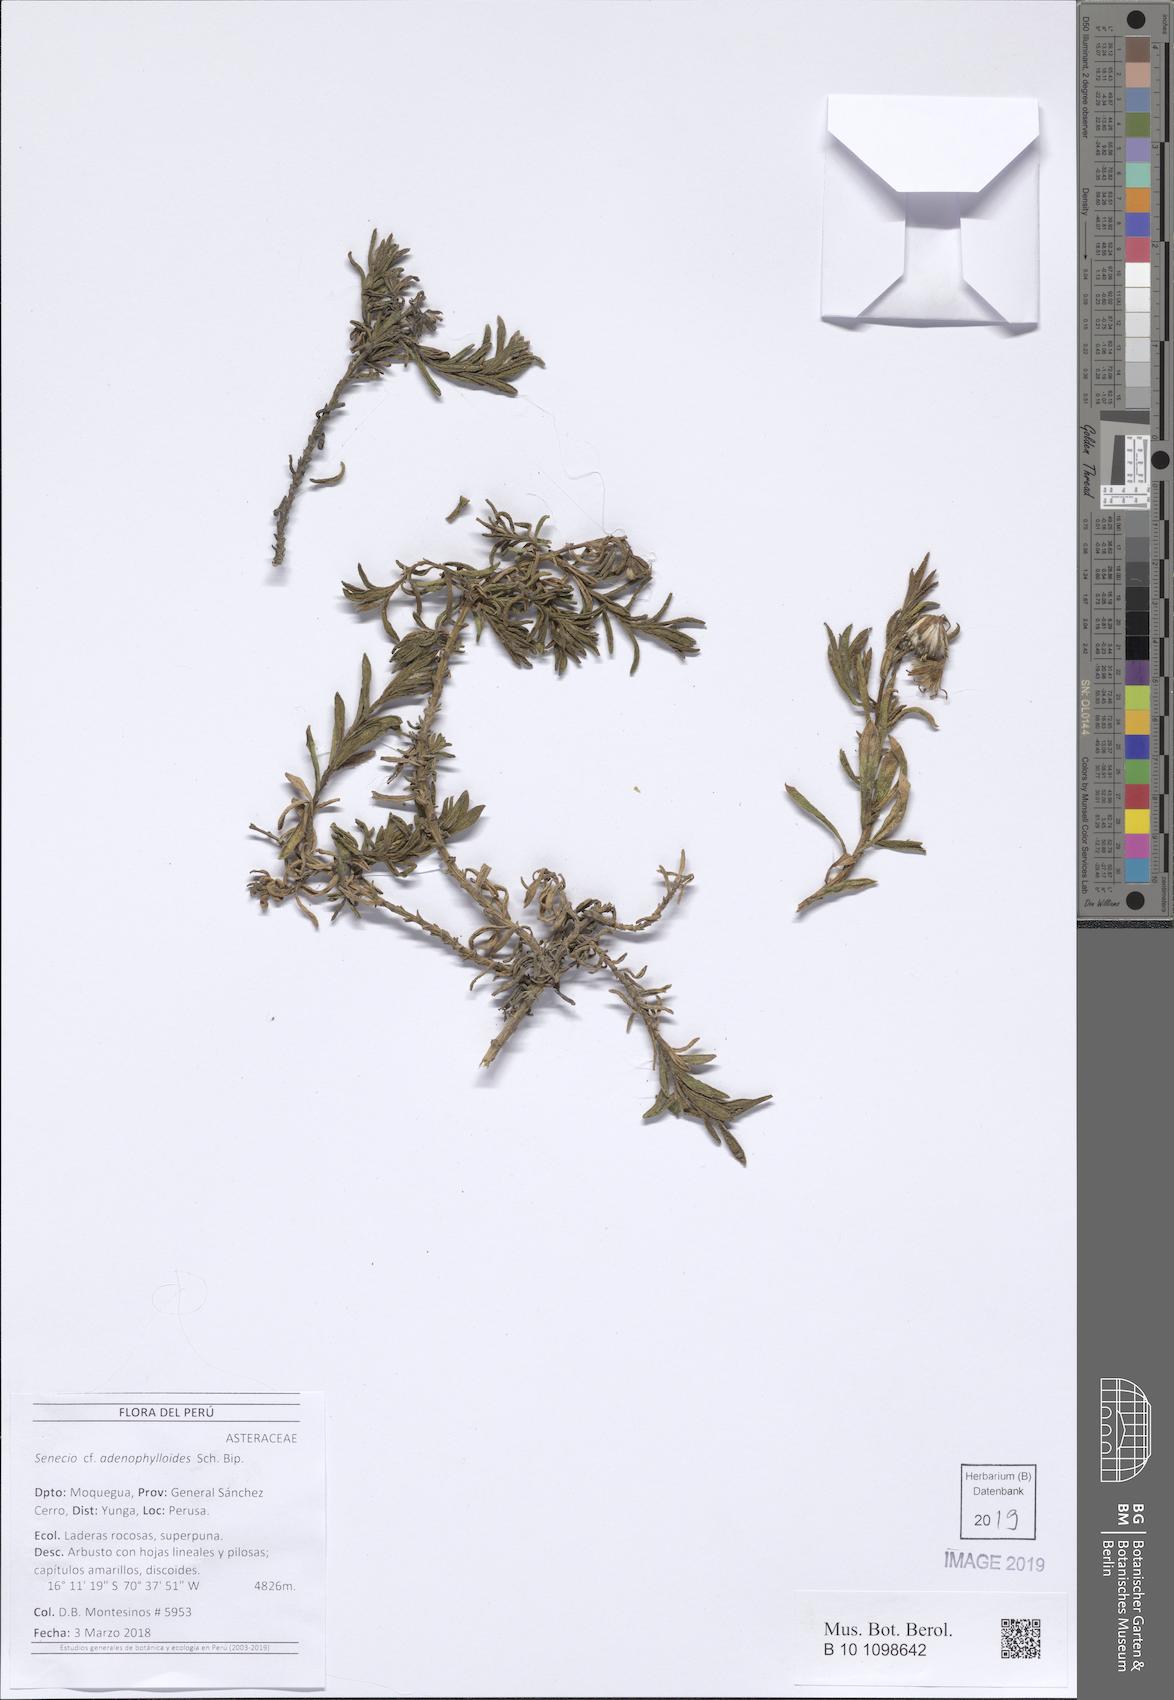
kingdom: Plantae
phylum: Tracheophyta
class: Magnoliopsida
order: Asterales
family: Asteraceae
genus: Senecio
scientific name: Senecio rufescens
